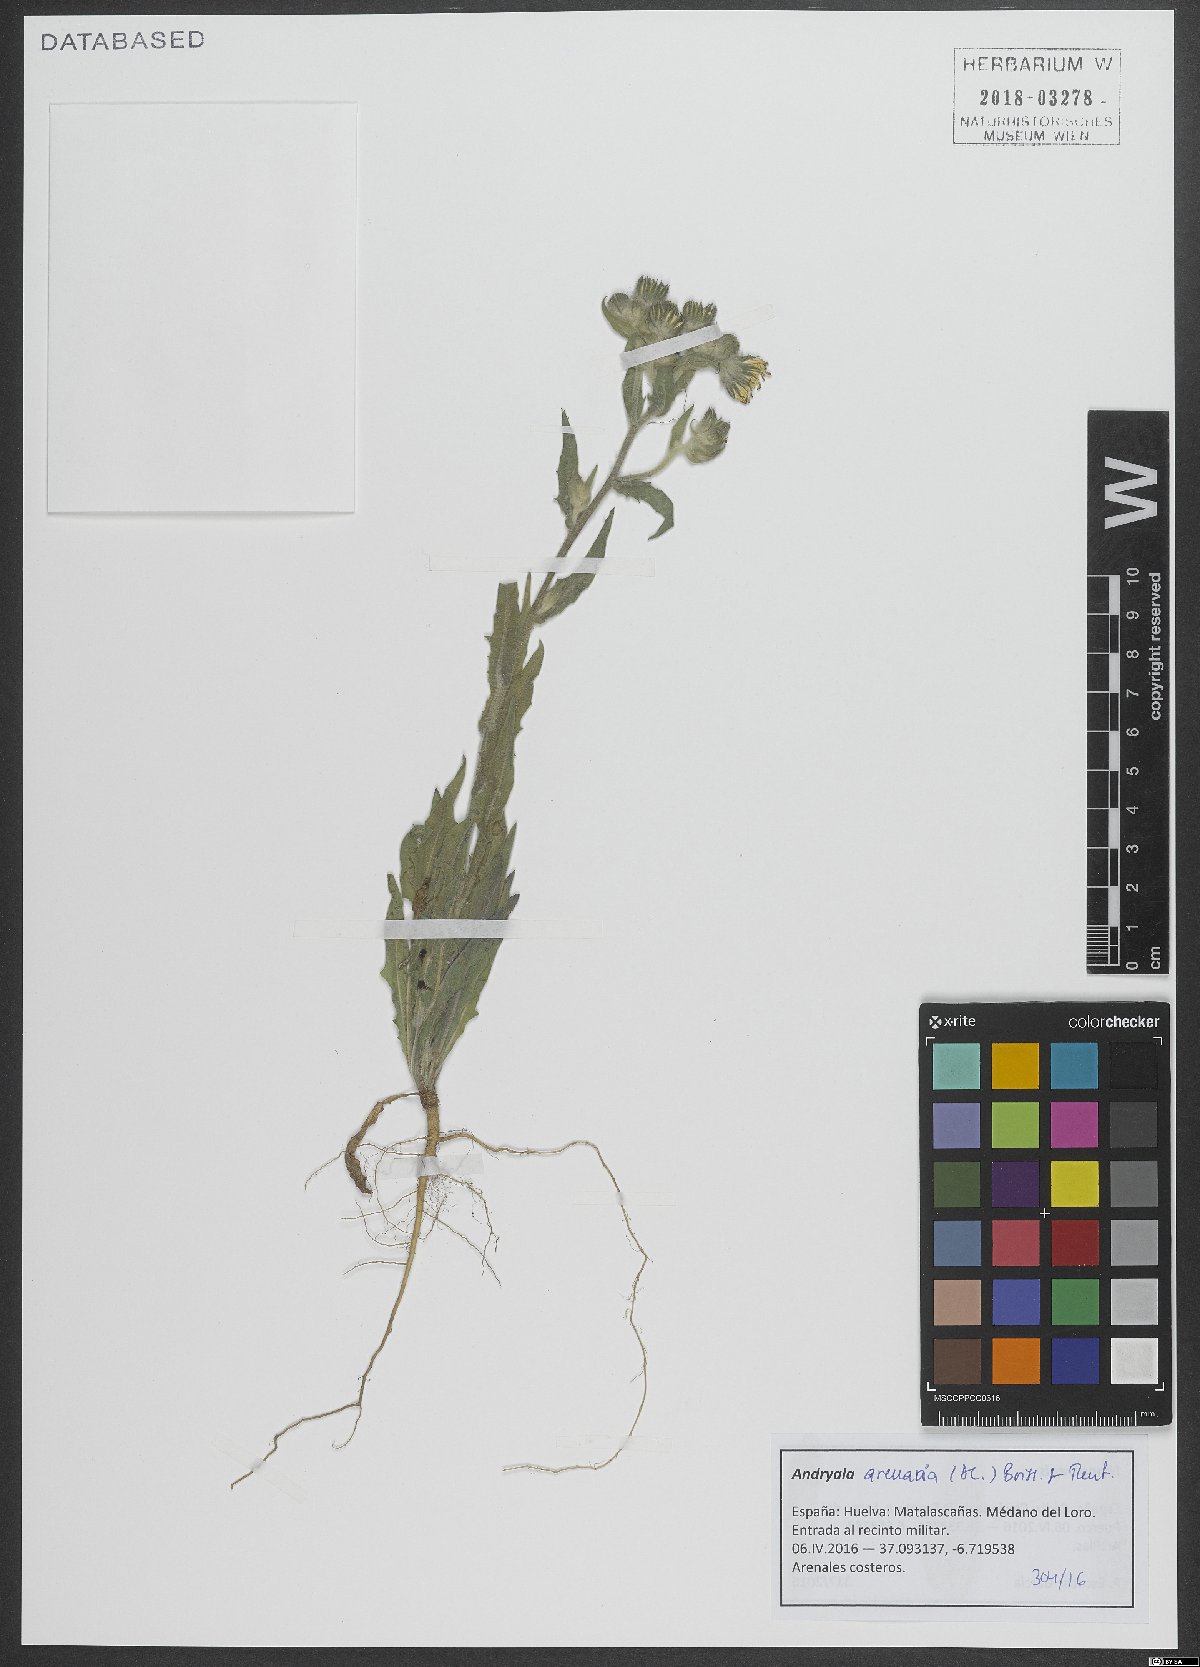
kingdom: Plantae
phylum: Tracheophyta
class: Magnoliopsida
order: Asterales
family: Asteraceae
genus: Andryala
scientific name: Andryala arenaria
